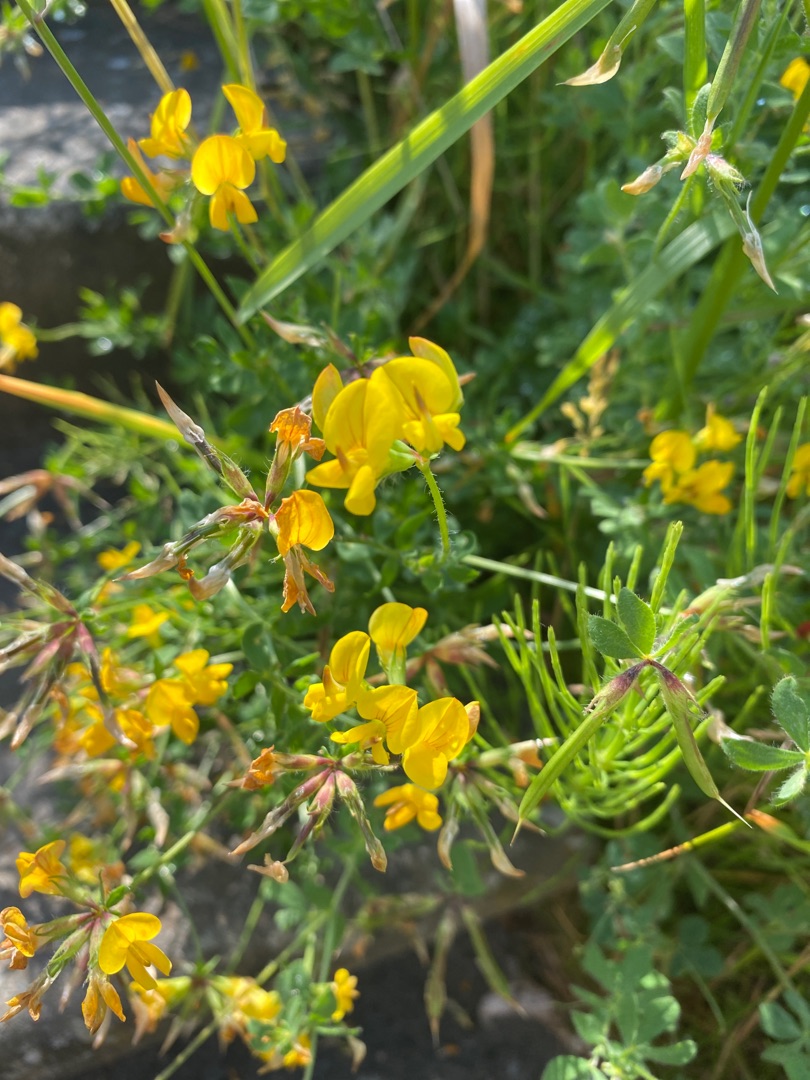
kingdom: Plantae
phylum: Tracheophyta
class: Magnoliopsida
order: Fabales
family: Fabaceae
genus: Lotus
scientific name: Lotus corniculatus
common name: Almindelig kællingetand
